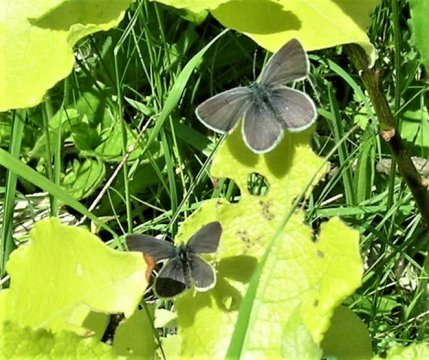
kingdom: Animalia
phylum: Arthropoda
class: Insecta
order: Lepidoptera
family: Lycaenidae
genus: Cupido
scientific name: Cupido minimus
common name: Small Blue
